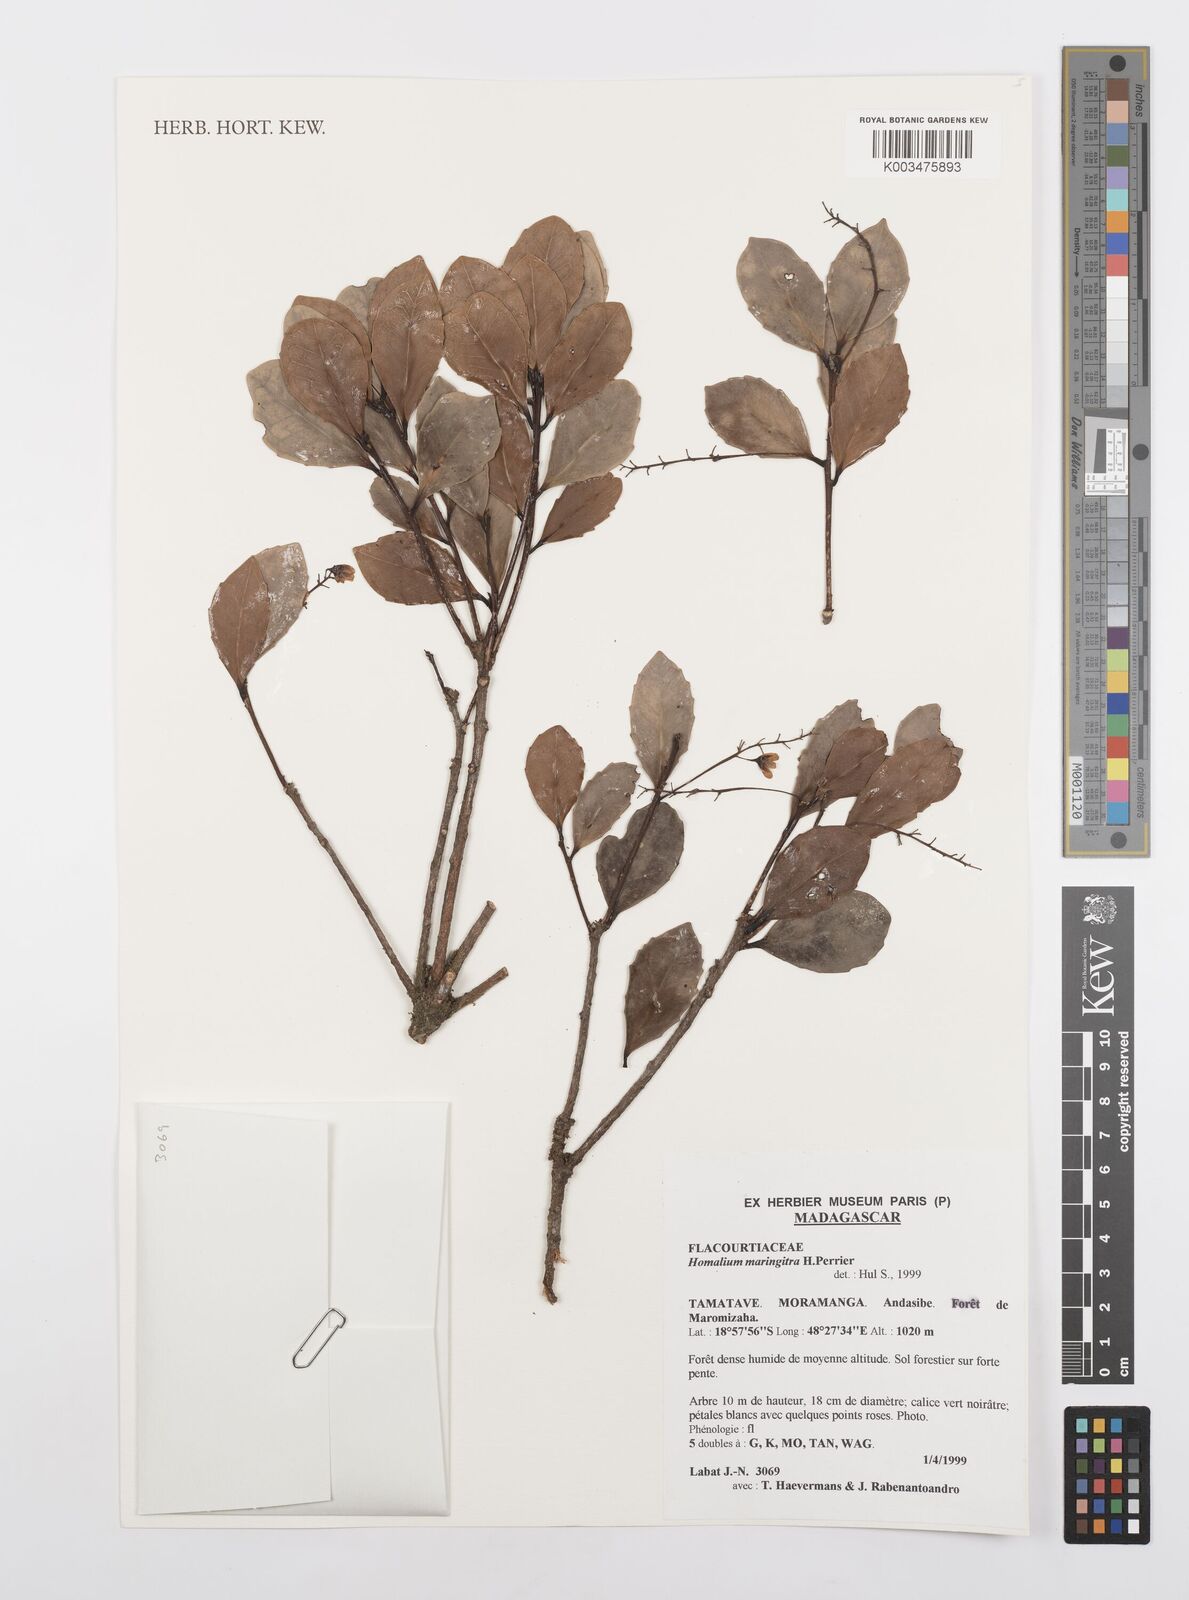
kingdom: Plantae
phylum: Tracheophyta
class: Magnoliopsida
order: Malpighiales
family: Salicaceae
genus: Homalium
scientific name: Homalium maringitra
